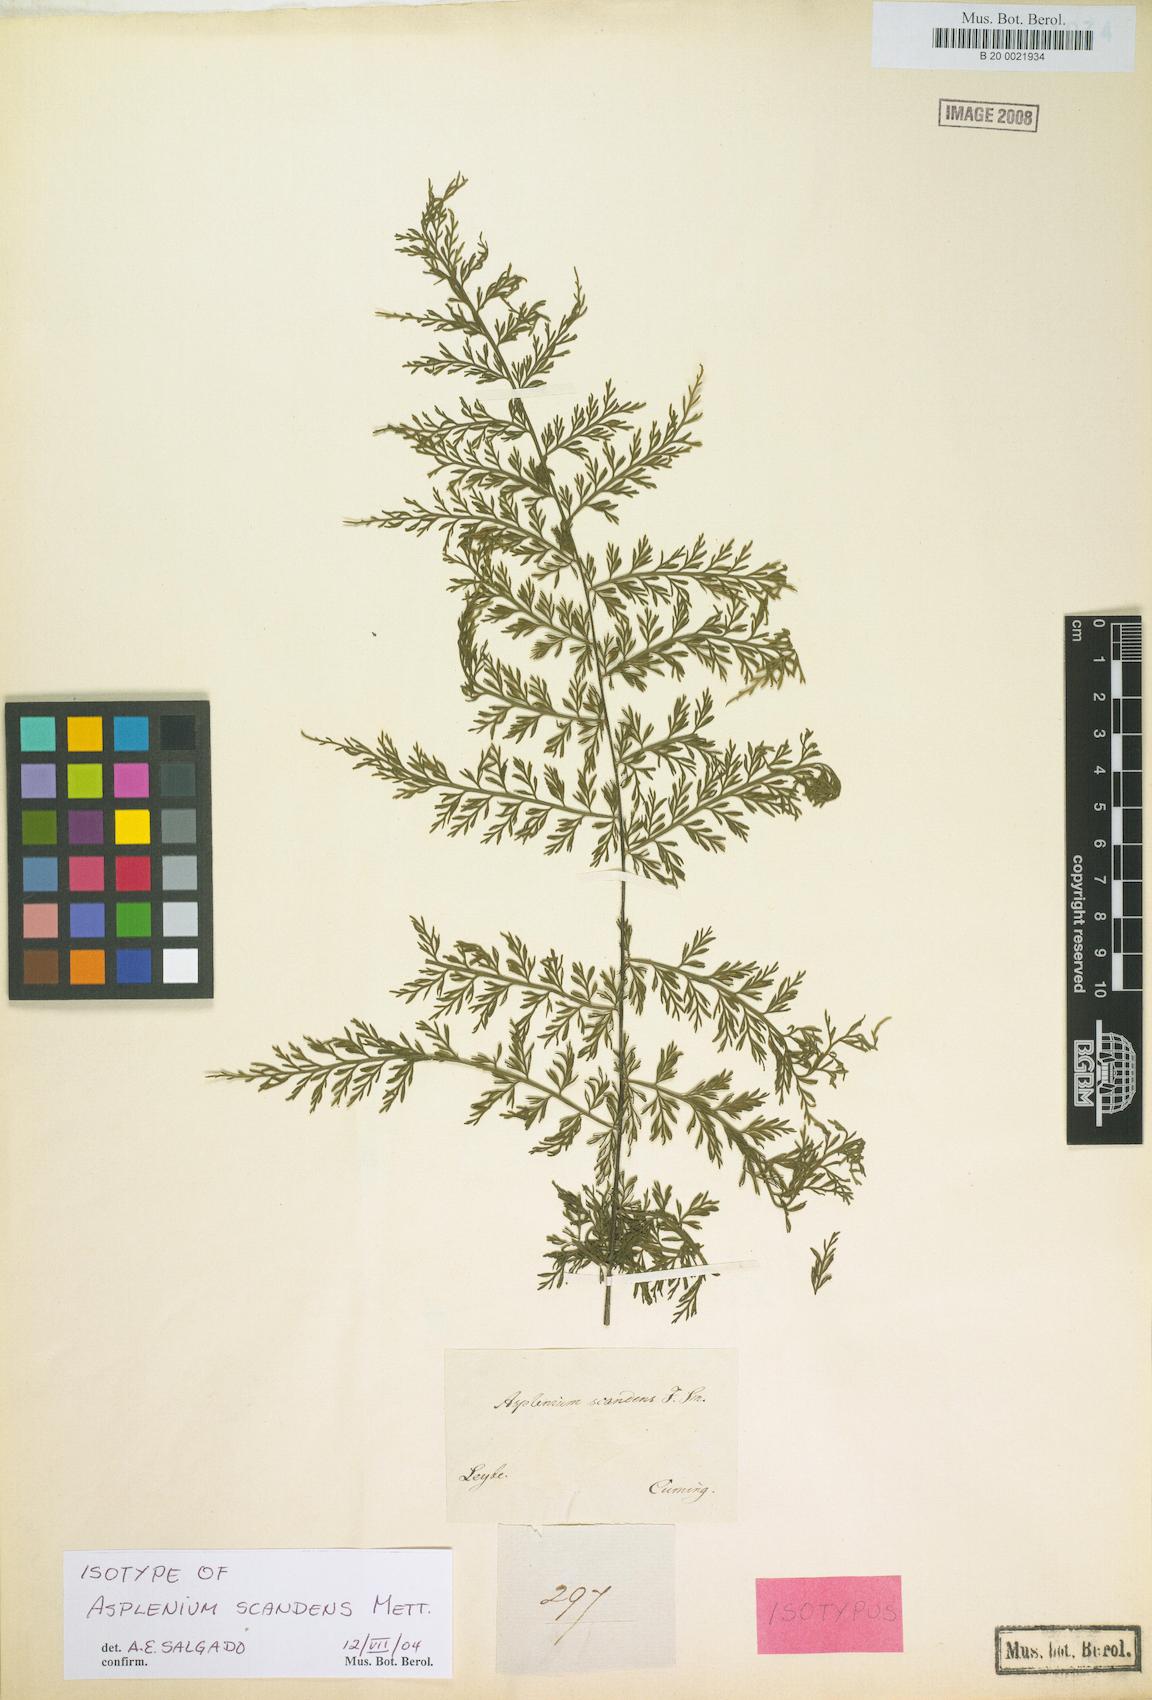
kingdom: Plantae
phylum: Tracheophyta
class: Polypodiopsida
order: Polypodiales
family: Aspleniaceae
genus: Asplenium
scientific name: Asplenium scandens
